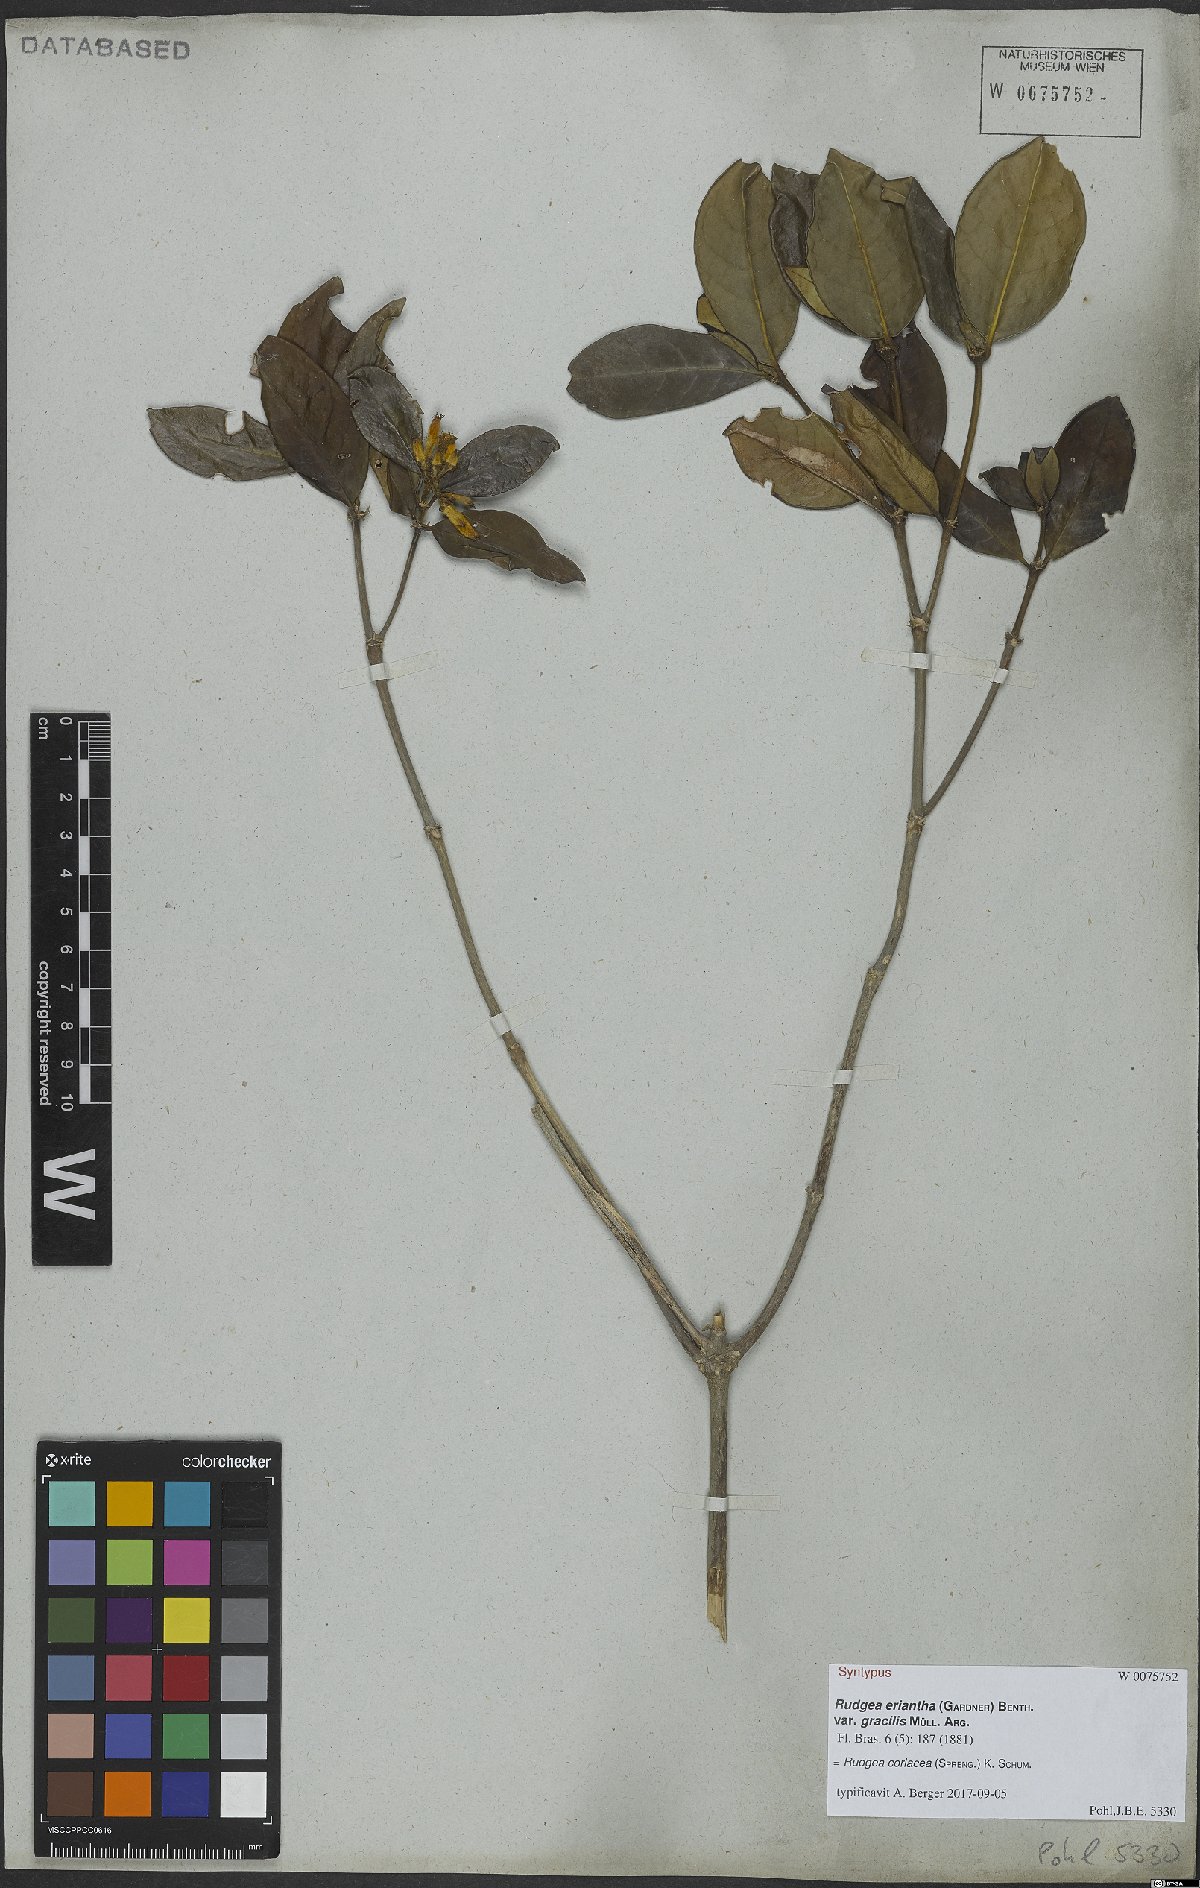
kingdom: Plantae
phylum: Tracheophyta
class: Magnoliopsida
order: Gentianales
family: Rubiaceae
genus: Rudgea
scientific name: Rudgea coriacea
